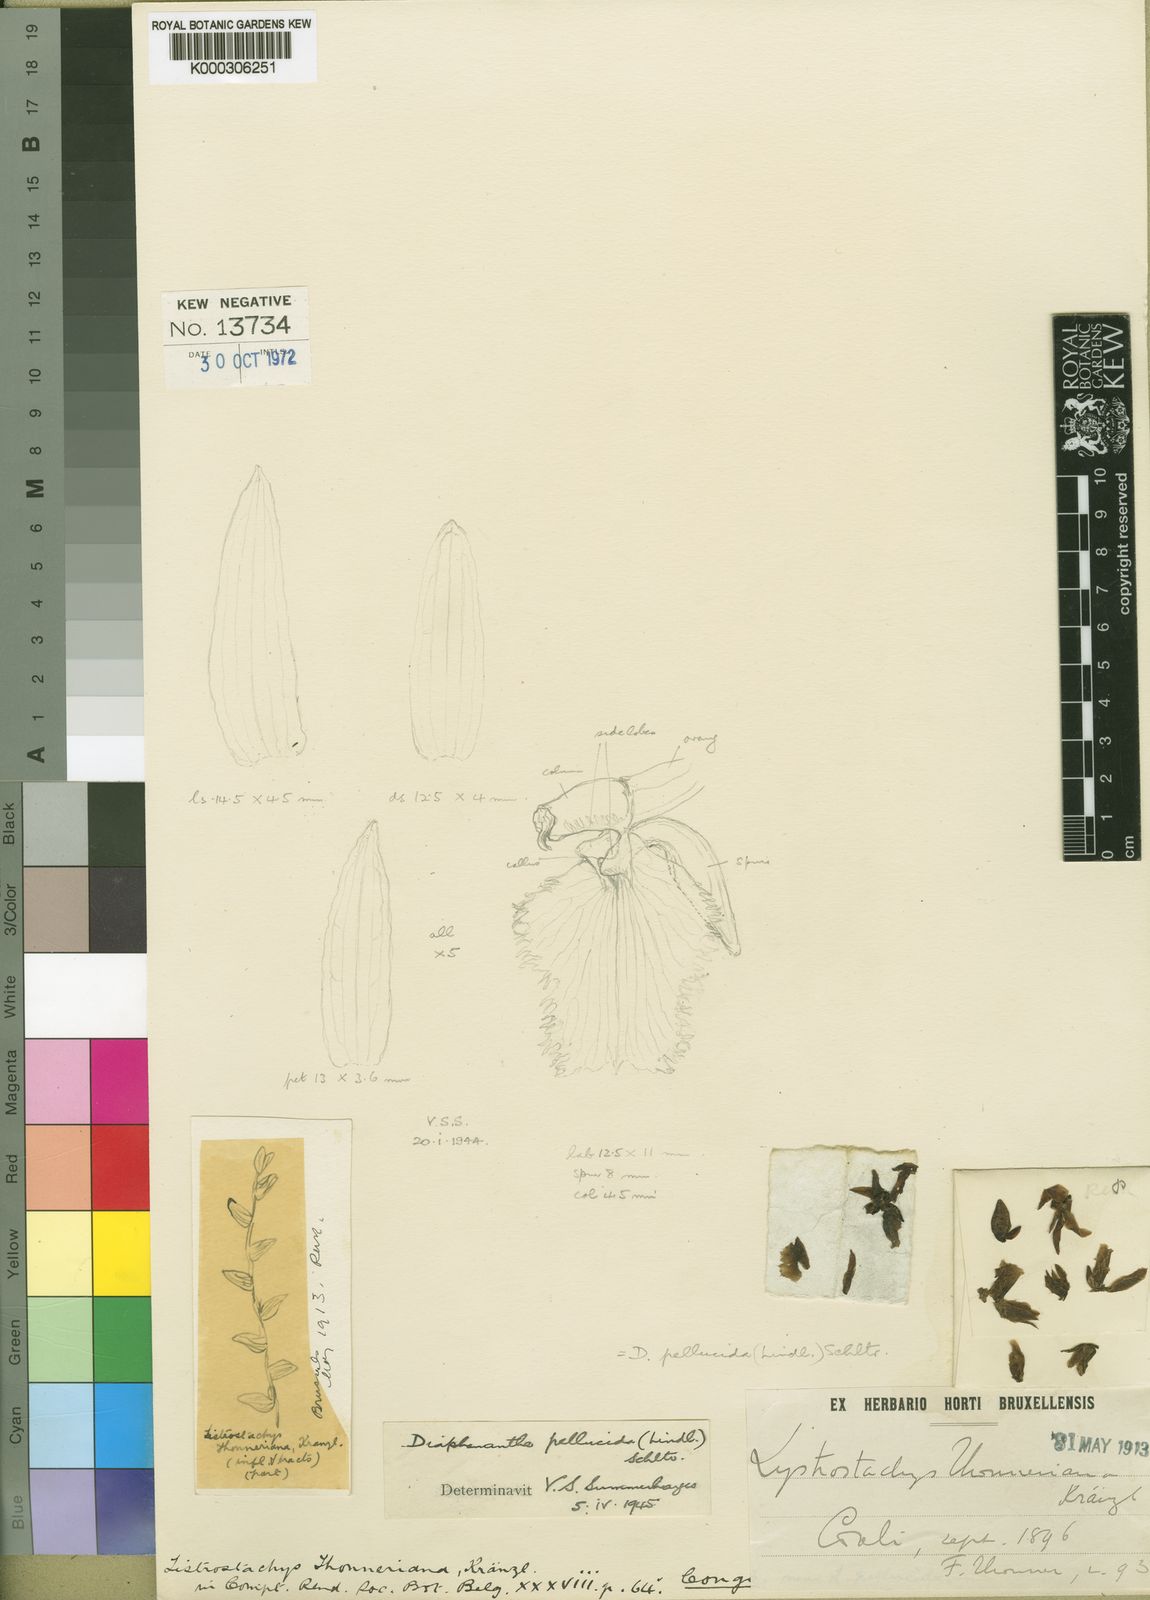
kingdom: Plantae
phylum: Tracheophyta
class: Liliopsida
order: Asparagales
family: Orchidaceae
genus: Diaphananthe
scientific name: Diaphananthe pellucida
